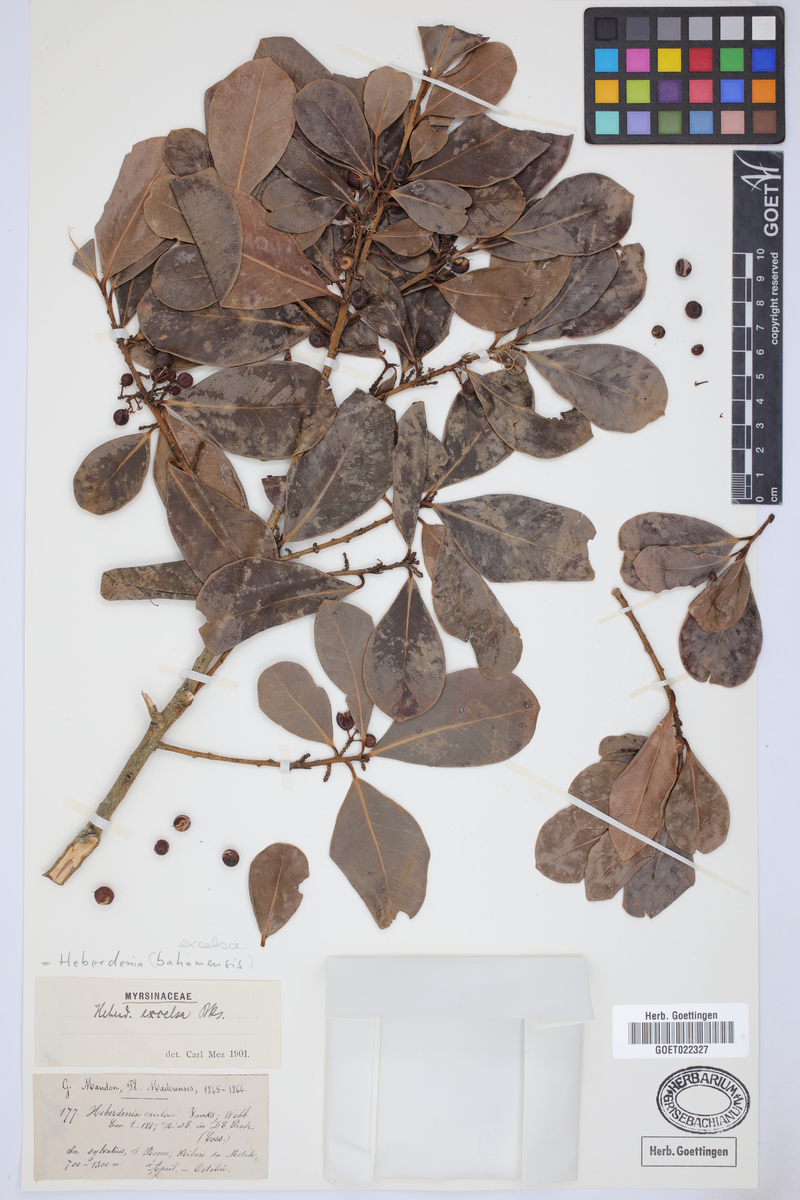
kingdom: Plantae
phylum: Tracheophyta
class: Magnoliopsida
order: Ericales
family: Primulaceae
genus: Heberdenia
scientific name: Heberdenia excelsa
